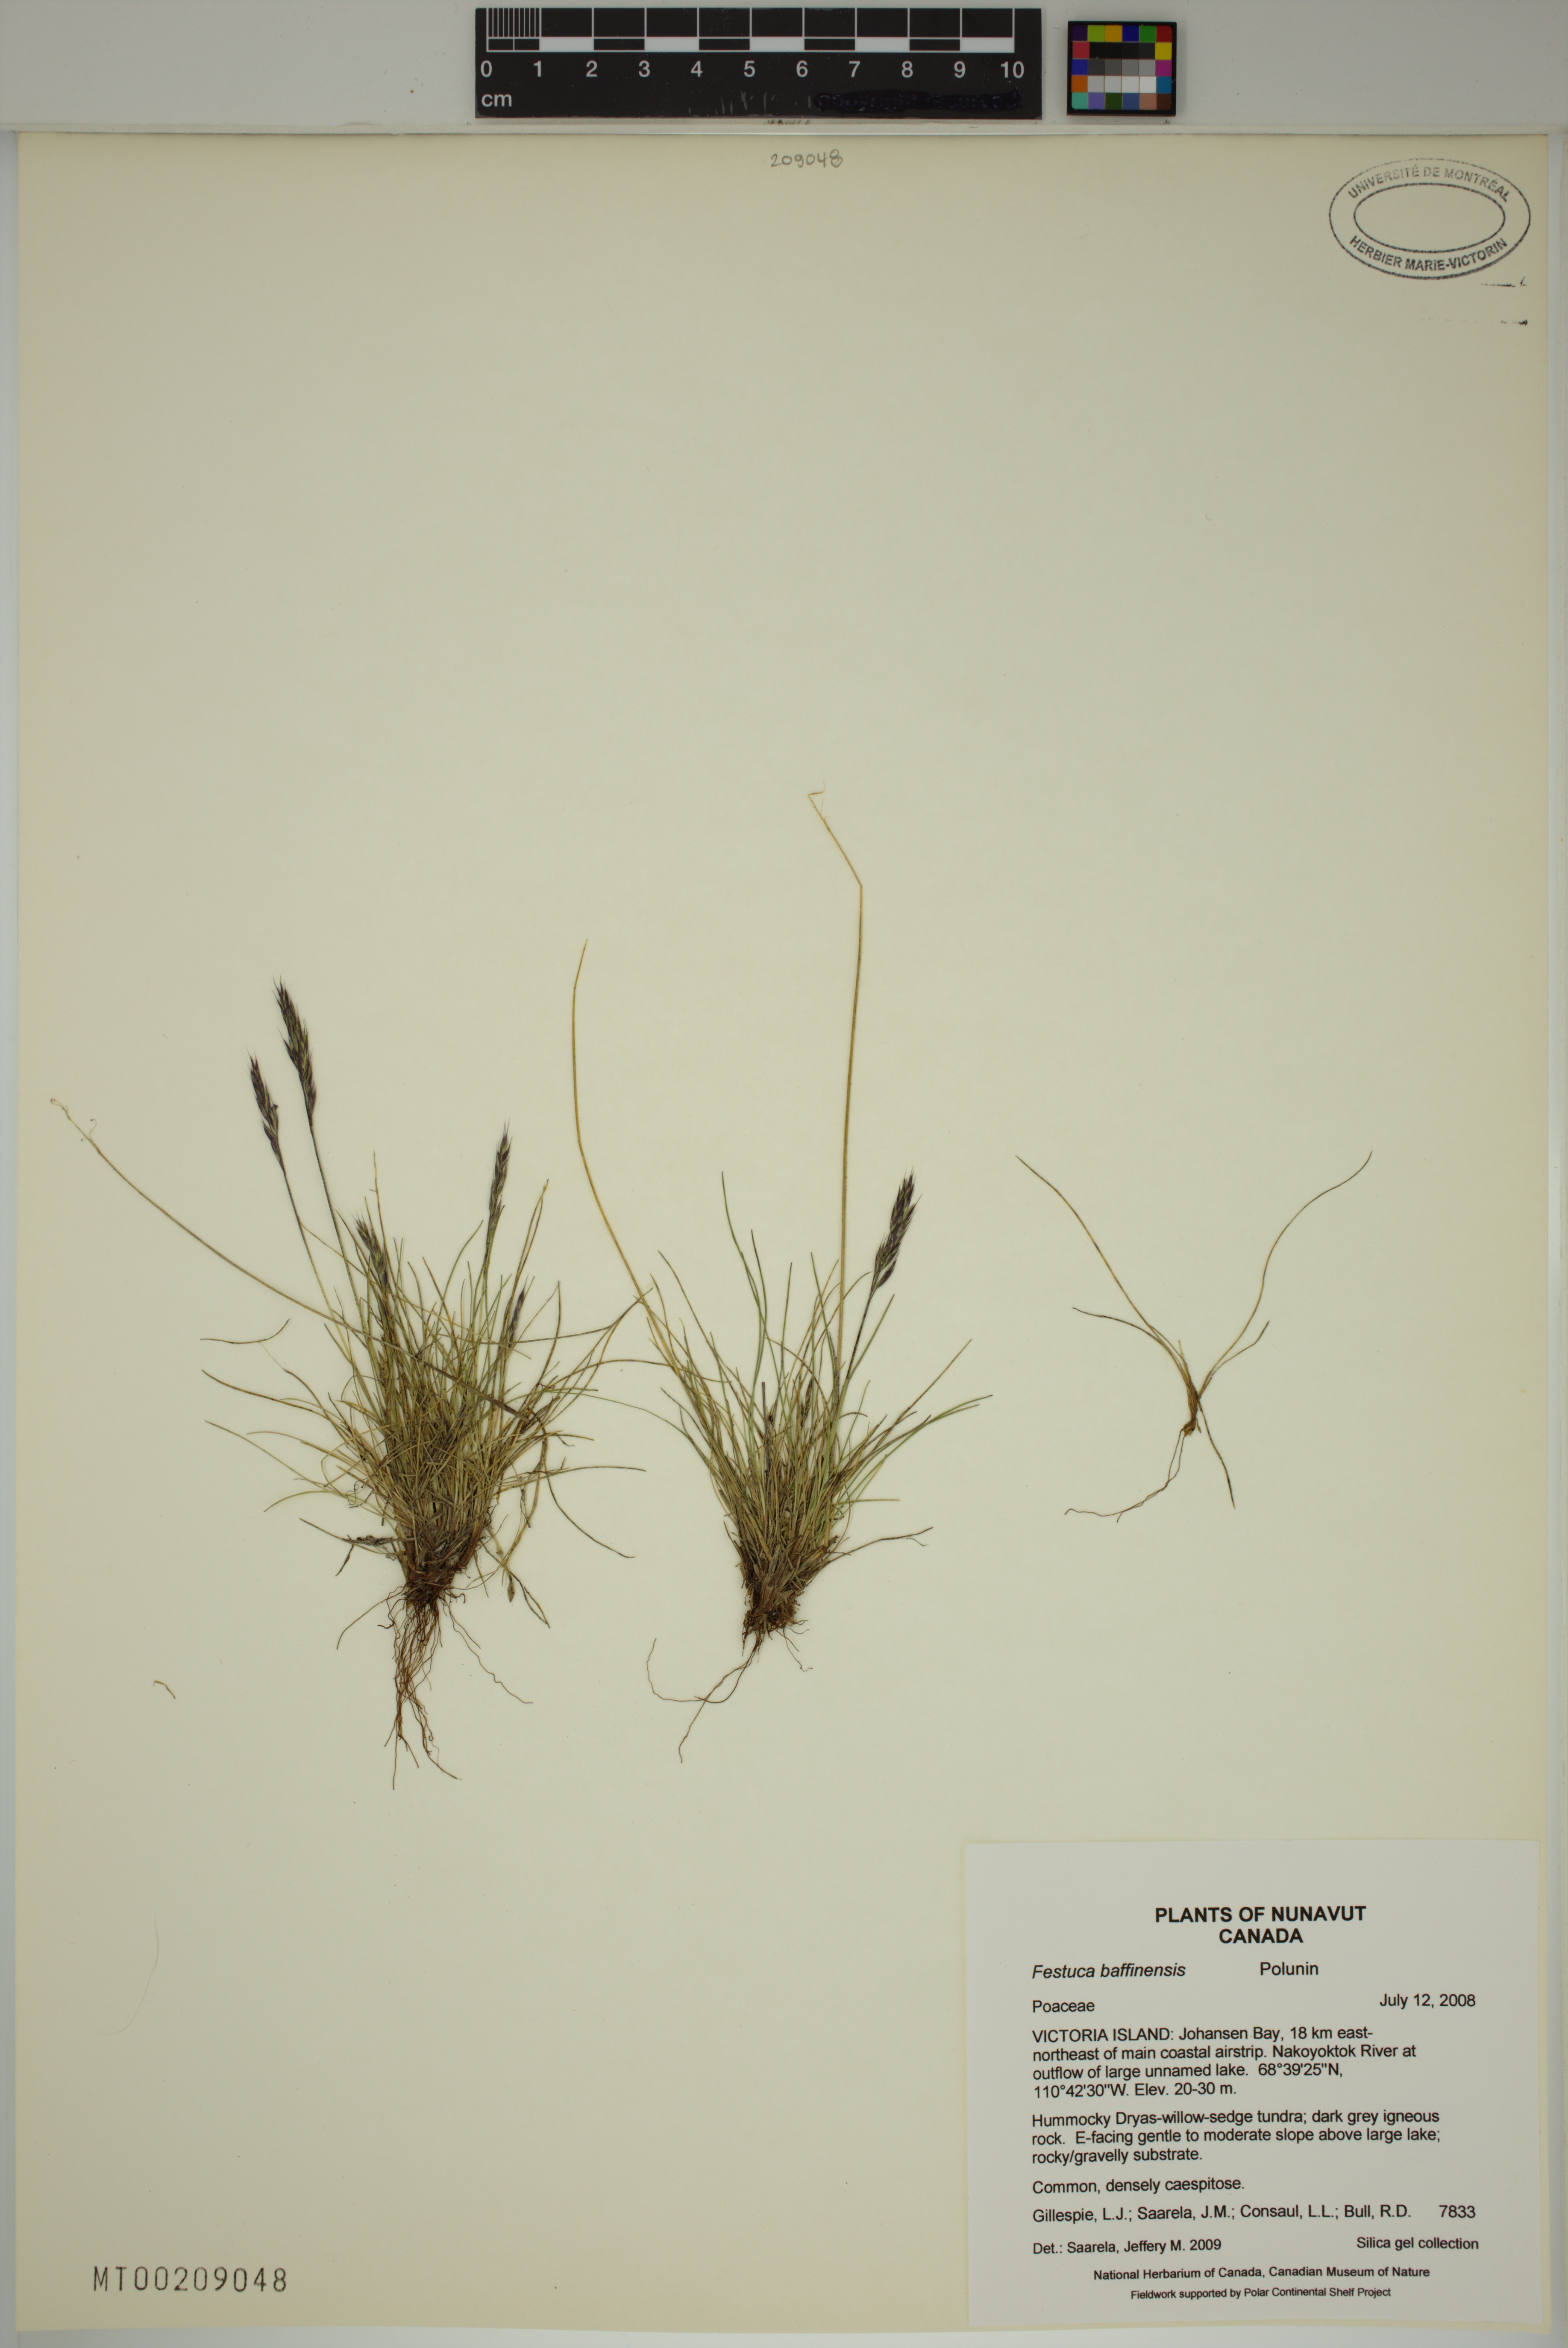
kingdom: Plantae
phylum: Tracheophyta
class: Liliopsida
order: Poales
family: Poaceae
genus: Festuca
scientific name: Festuca baffinensis
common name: Baffin island fescue
